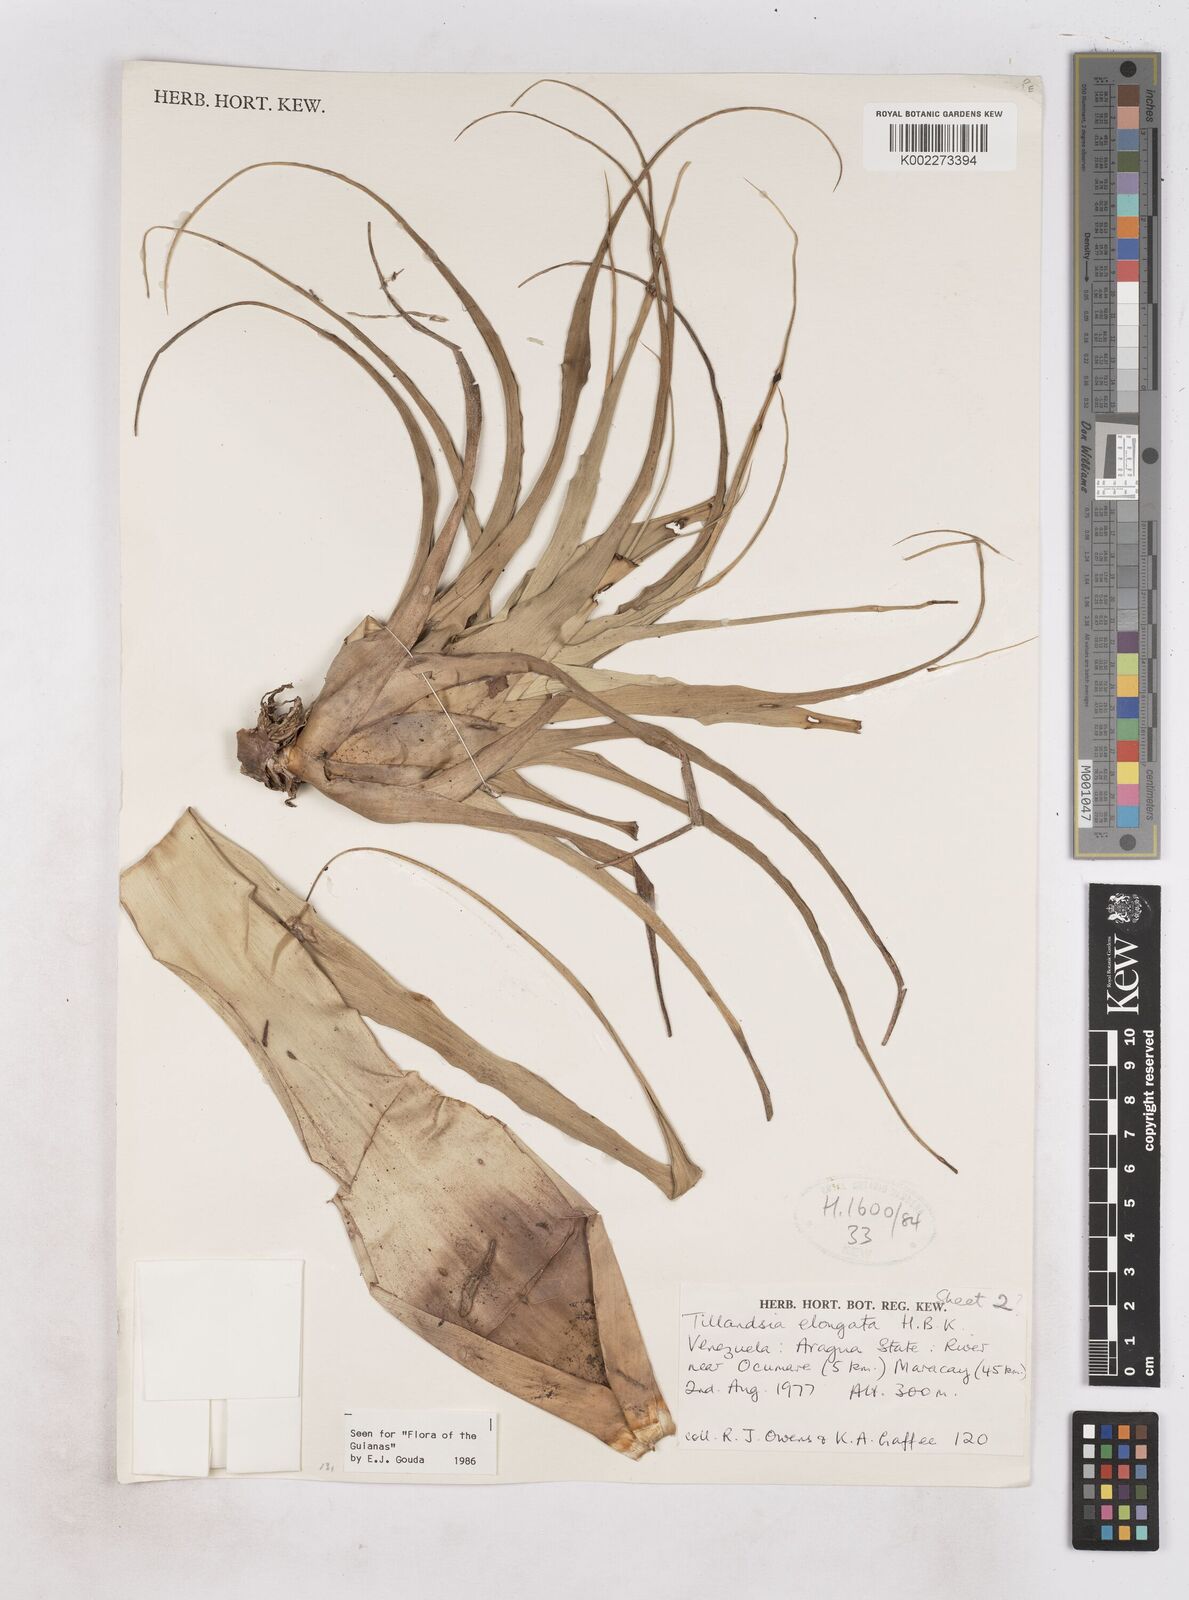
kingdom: Plantae
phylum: Tracheophyta
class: Liliopsida
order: Poales
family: Bromeliaceae
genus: Tillandsia
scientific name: Tillandsia elongata
